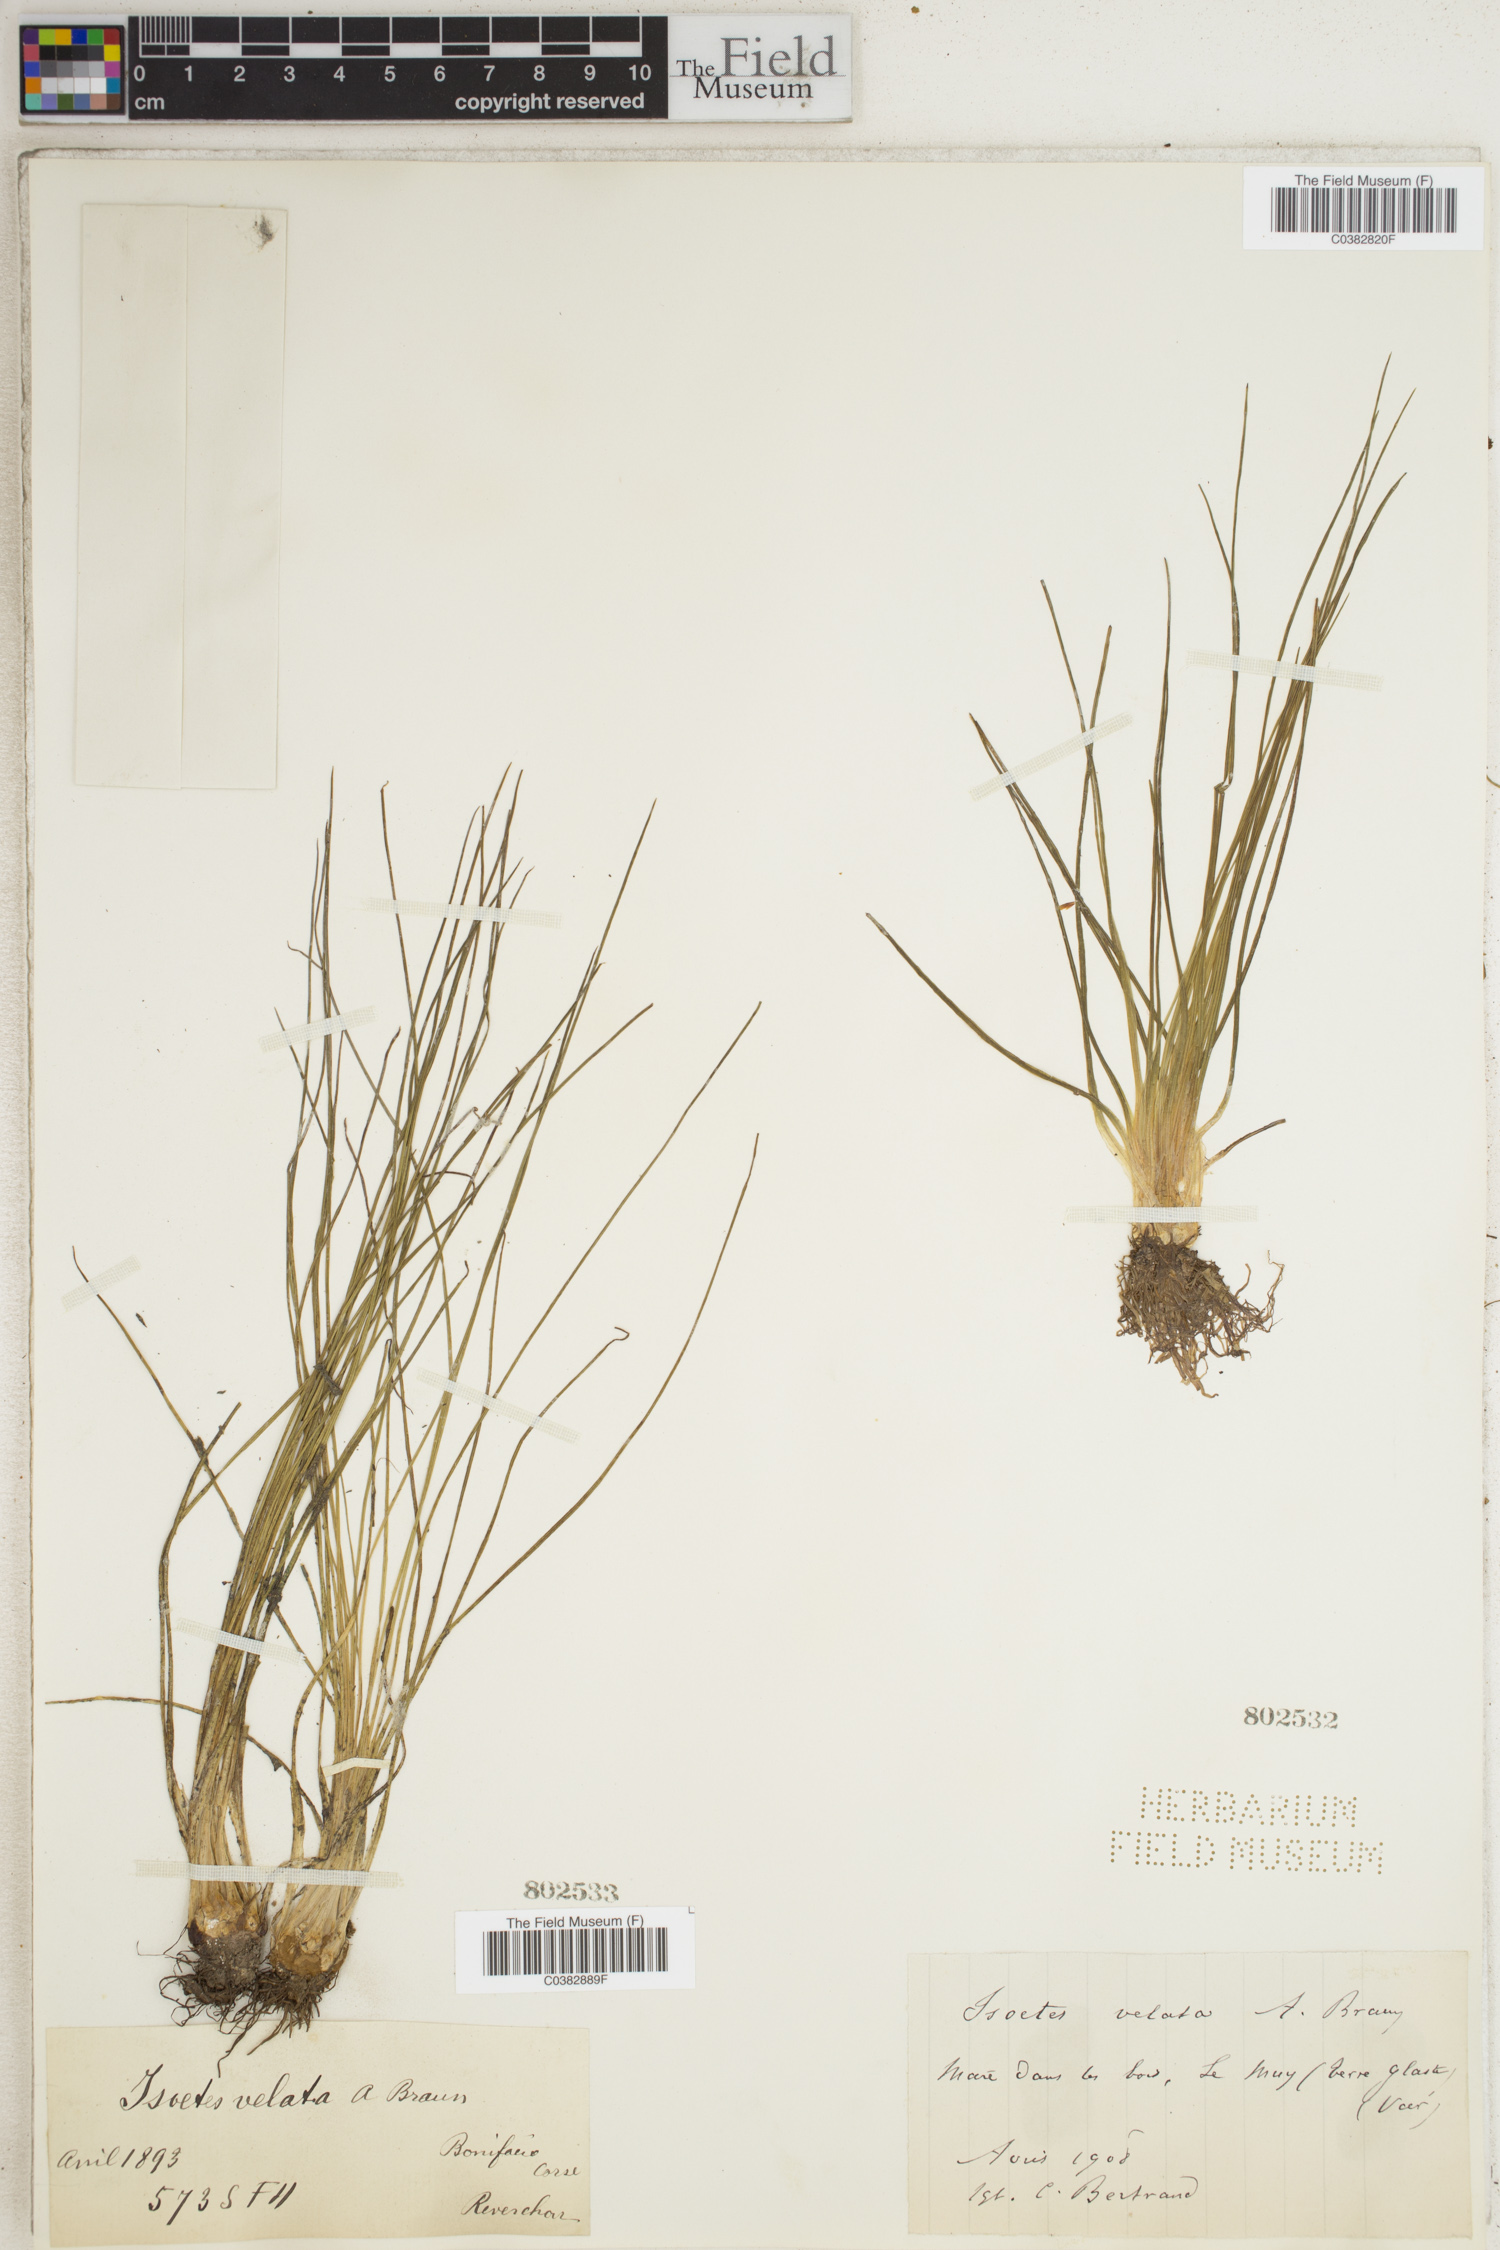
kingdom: Plantae
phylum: Tracheophyta
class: Lycopodiopsida
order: Isoetales
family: Isoetaceae
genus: Isoetes
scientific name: Isoetes longissima
